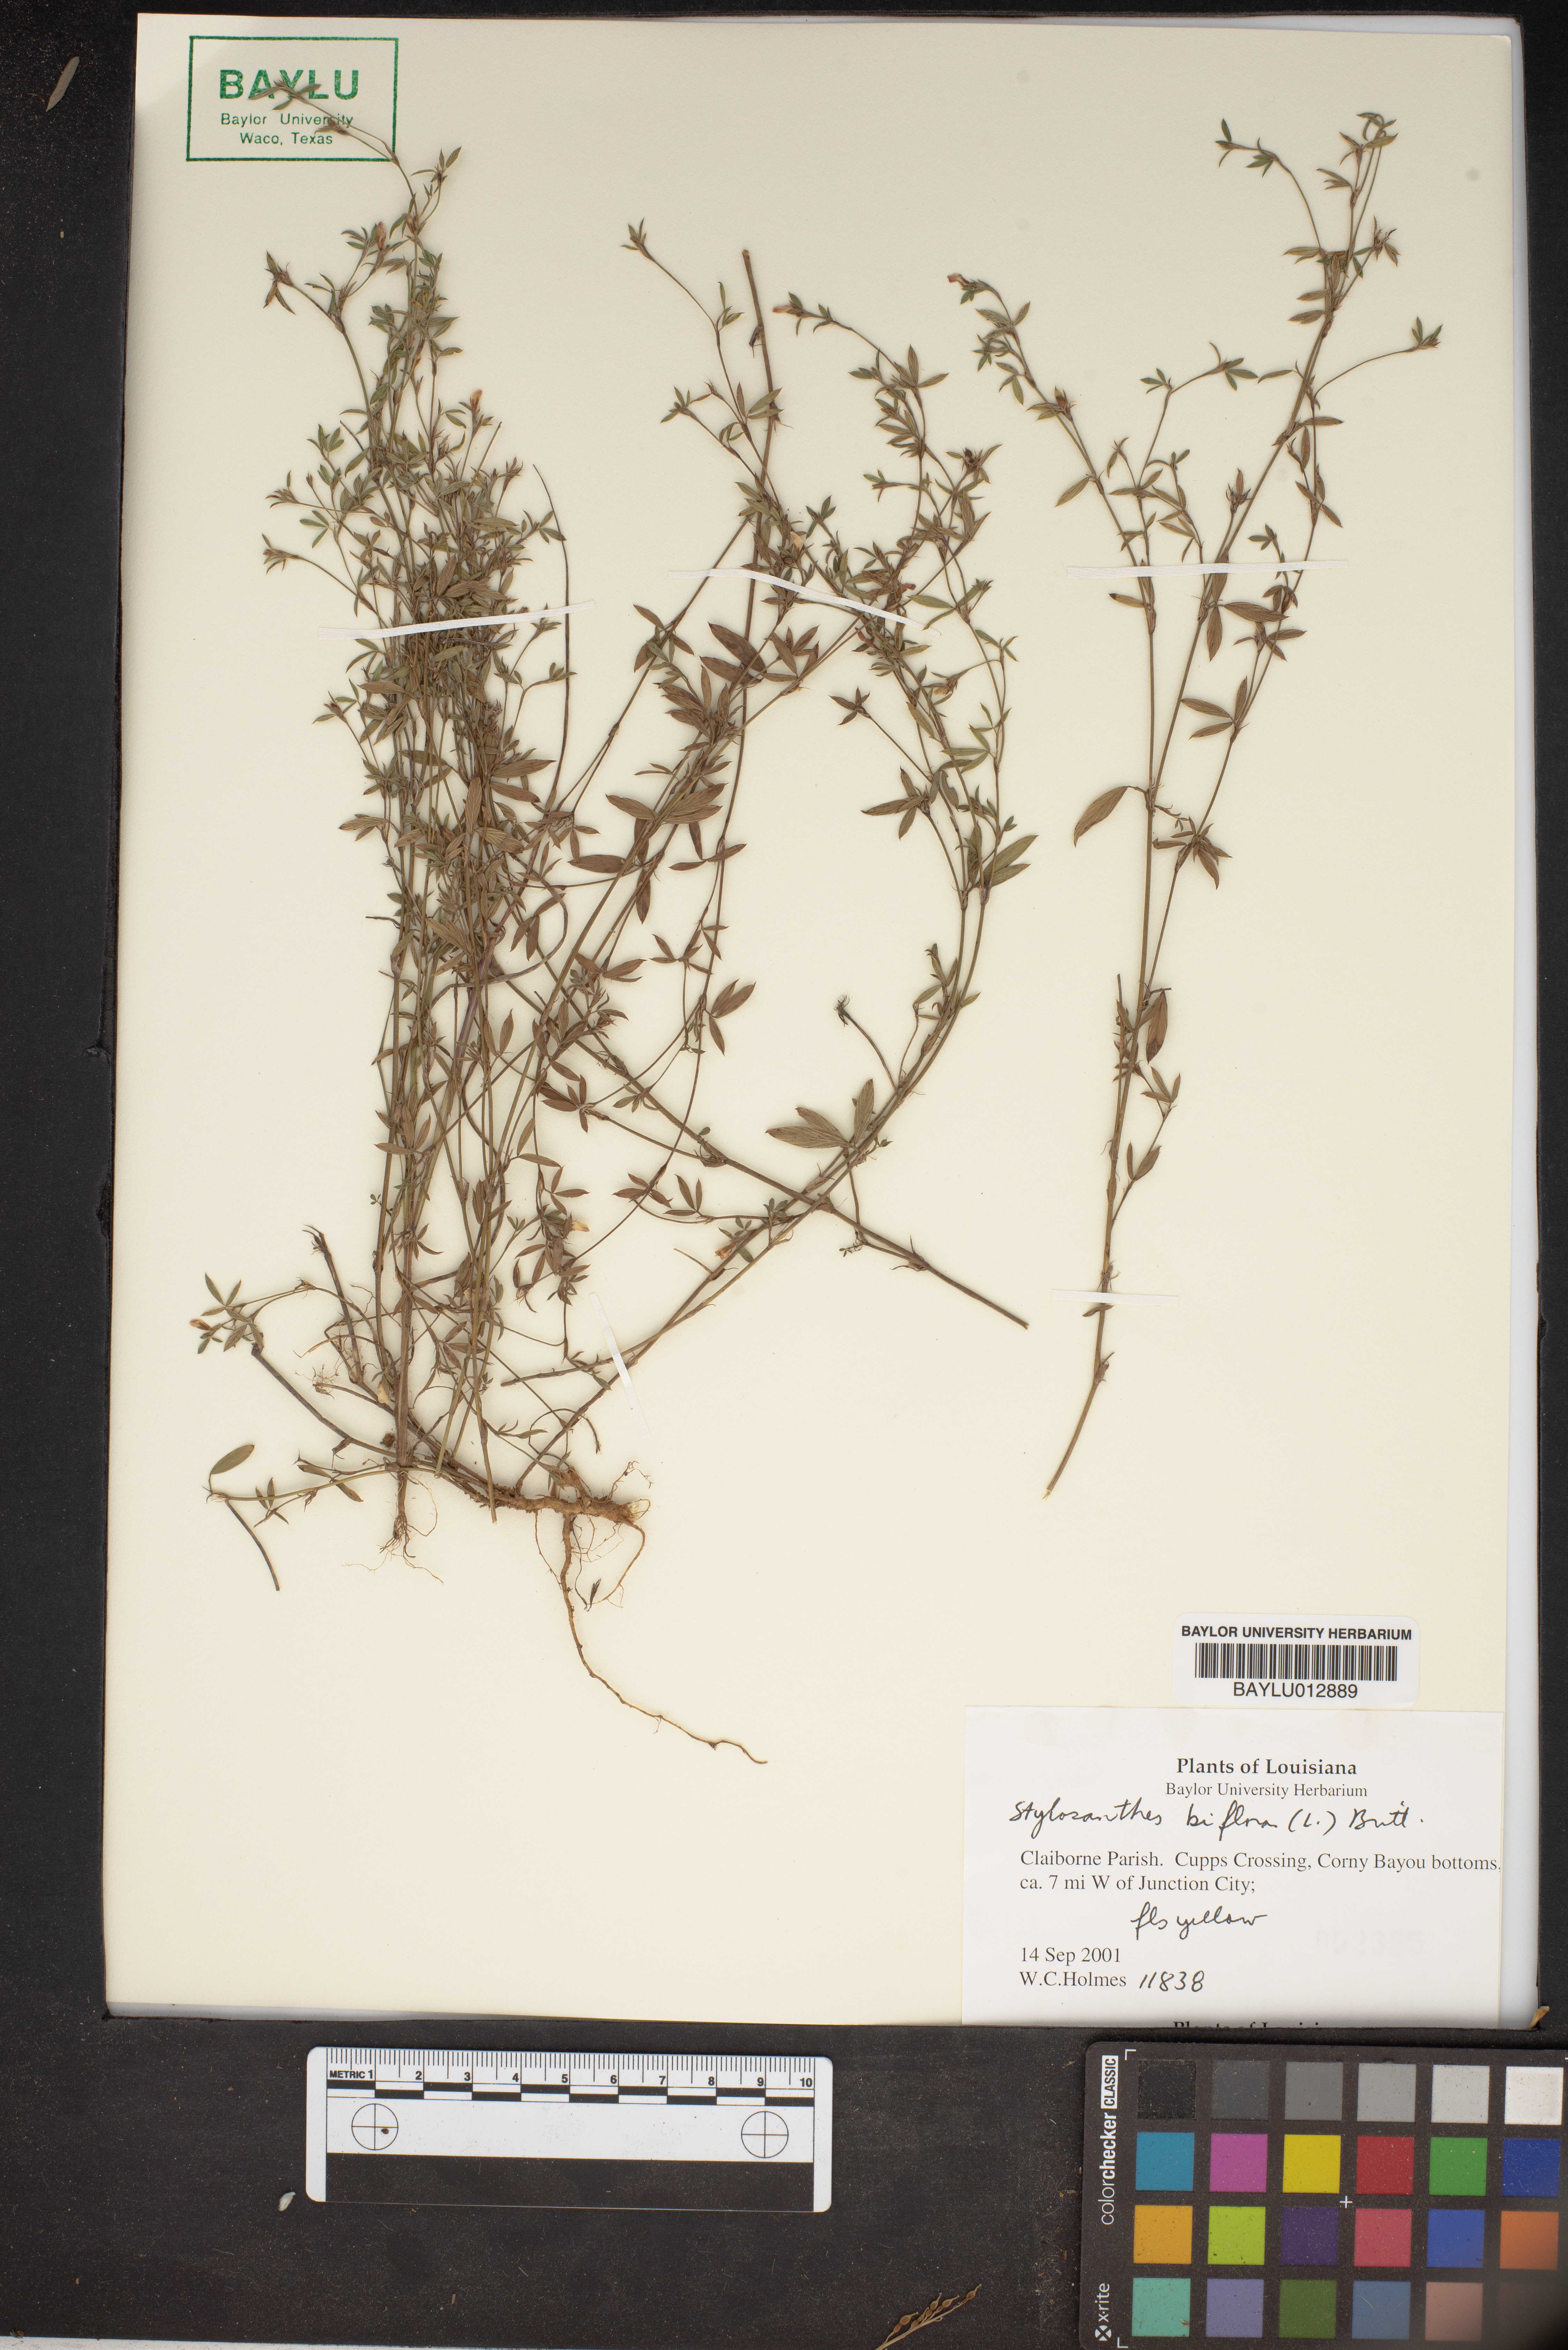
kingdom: Plantae
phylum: Tracheophyta
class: Magnoliopsida
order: Fabales
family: Fabaceae
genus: Stylosanthes
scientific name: Stylosanthes biflora
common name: Two-flower pencil-flower
